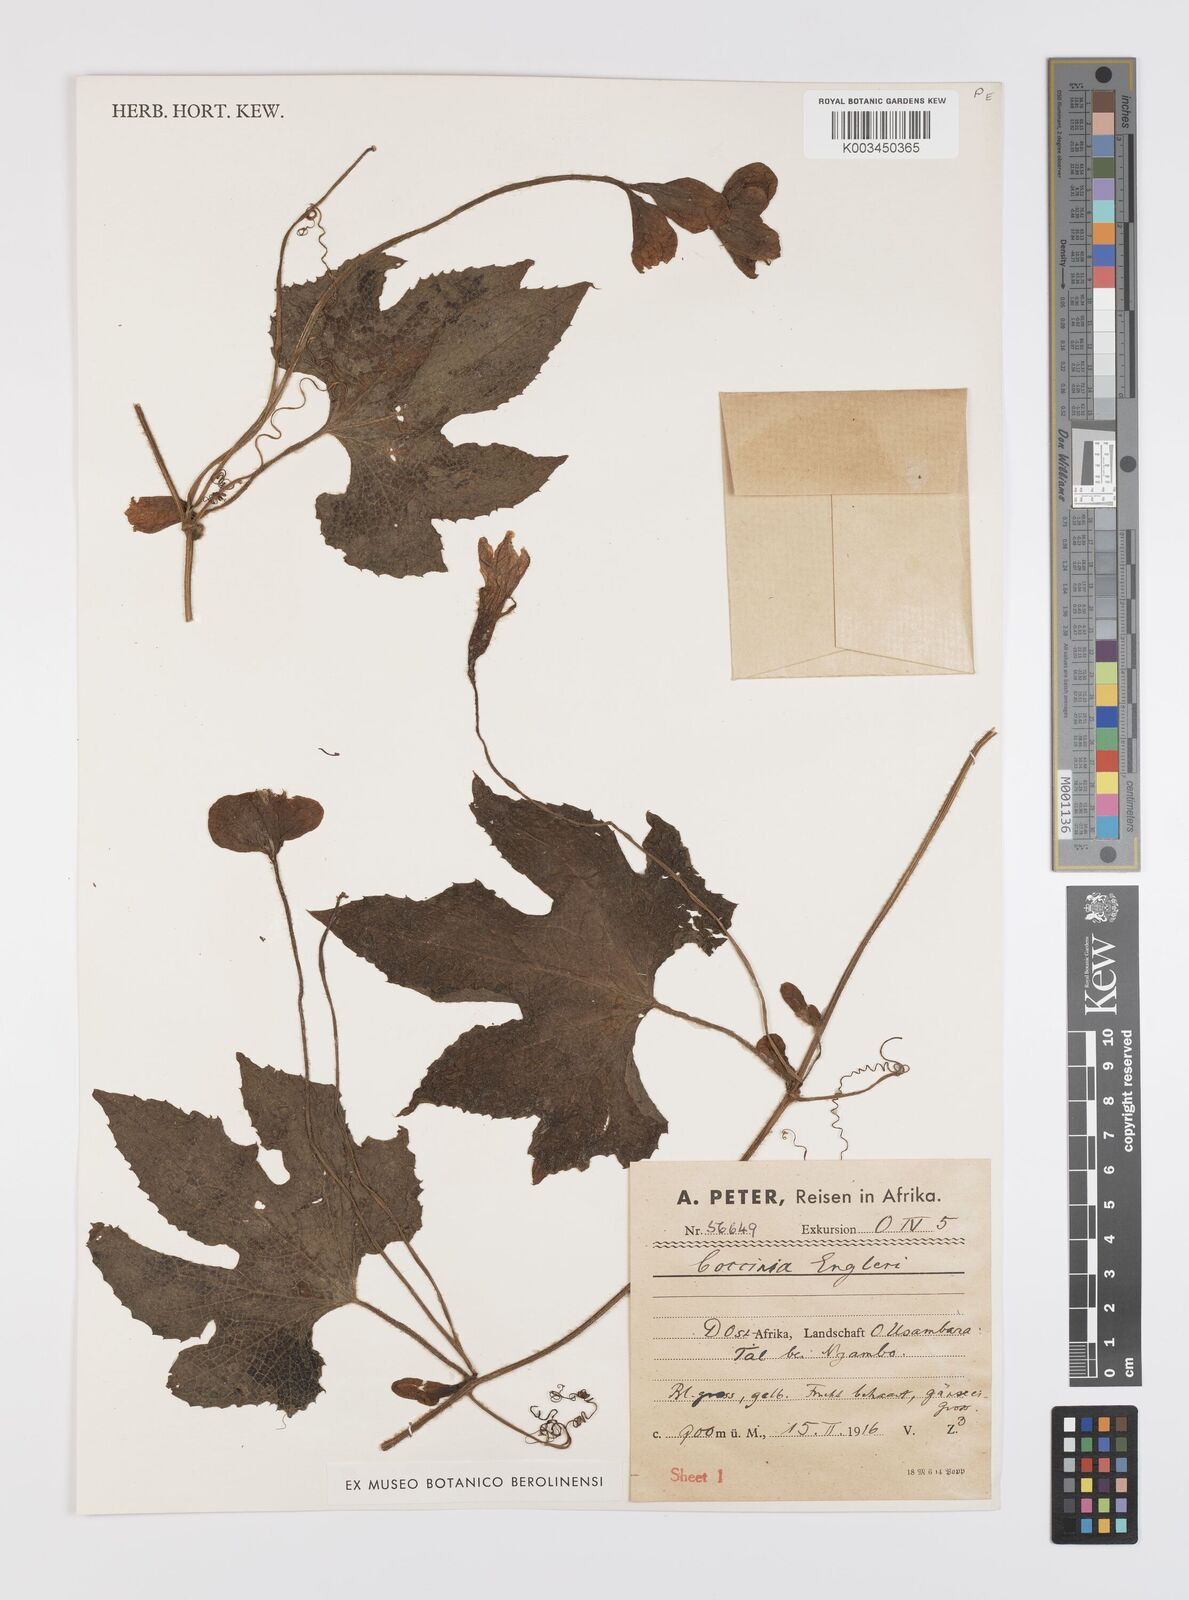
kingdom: Plantae
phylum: Tracheophyta
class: Magnoliopsida
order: Cucurbitales
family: Cucurbitaceae
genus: Peponium
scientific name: Peponium vogelii
